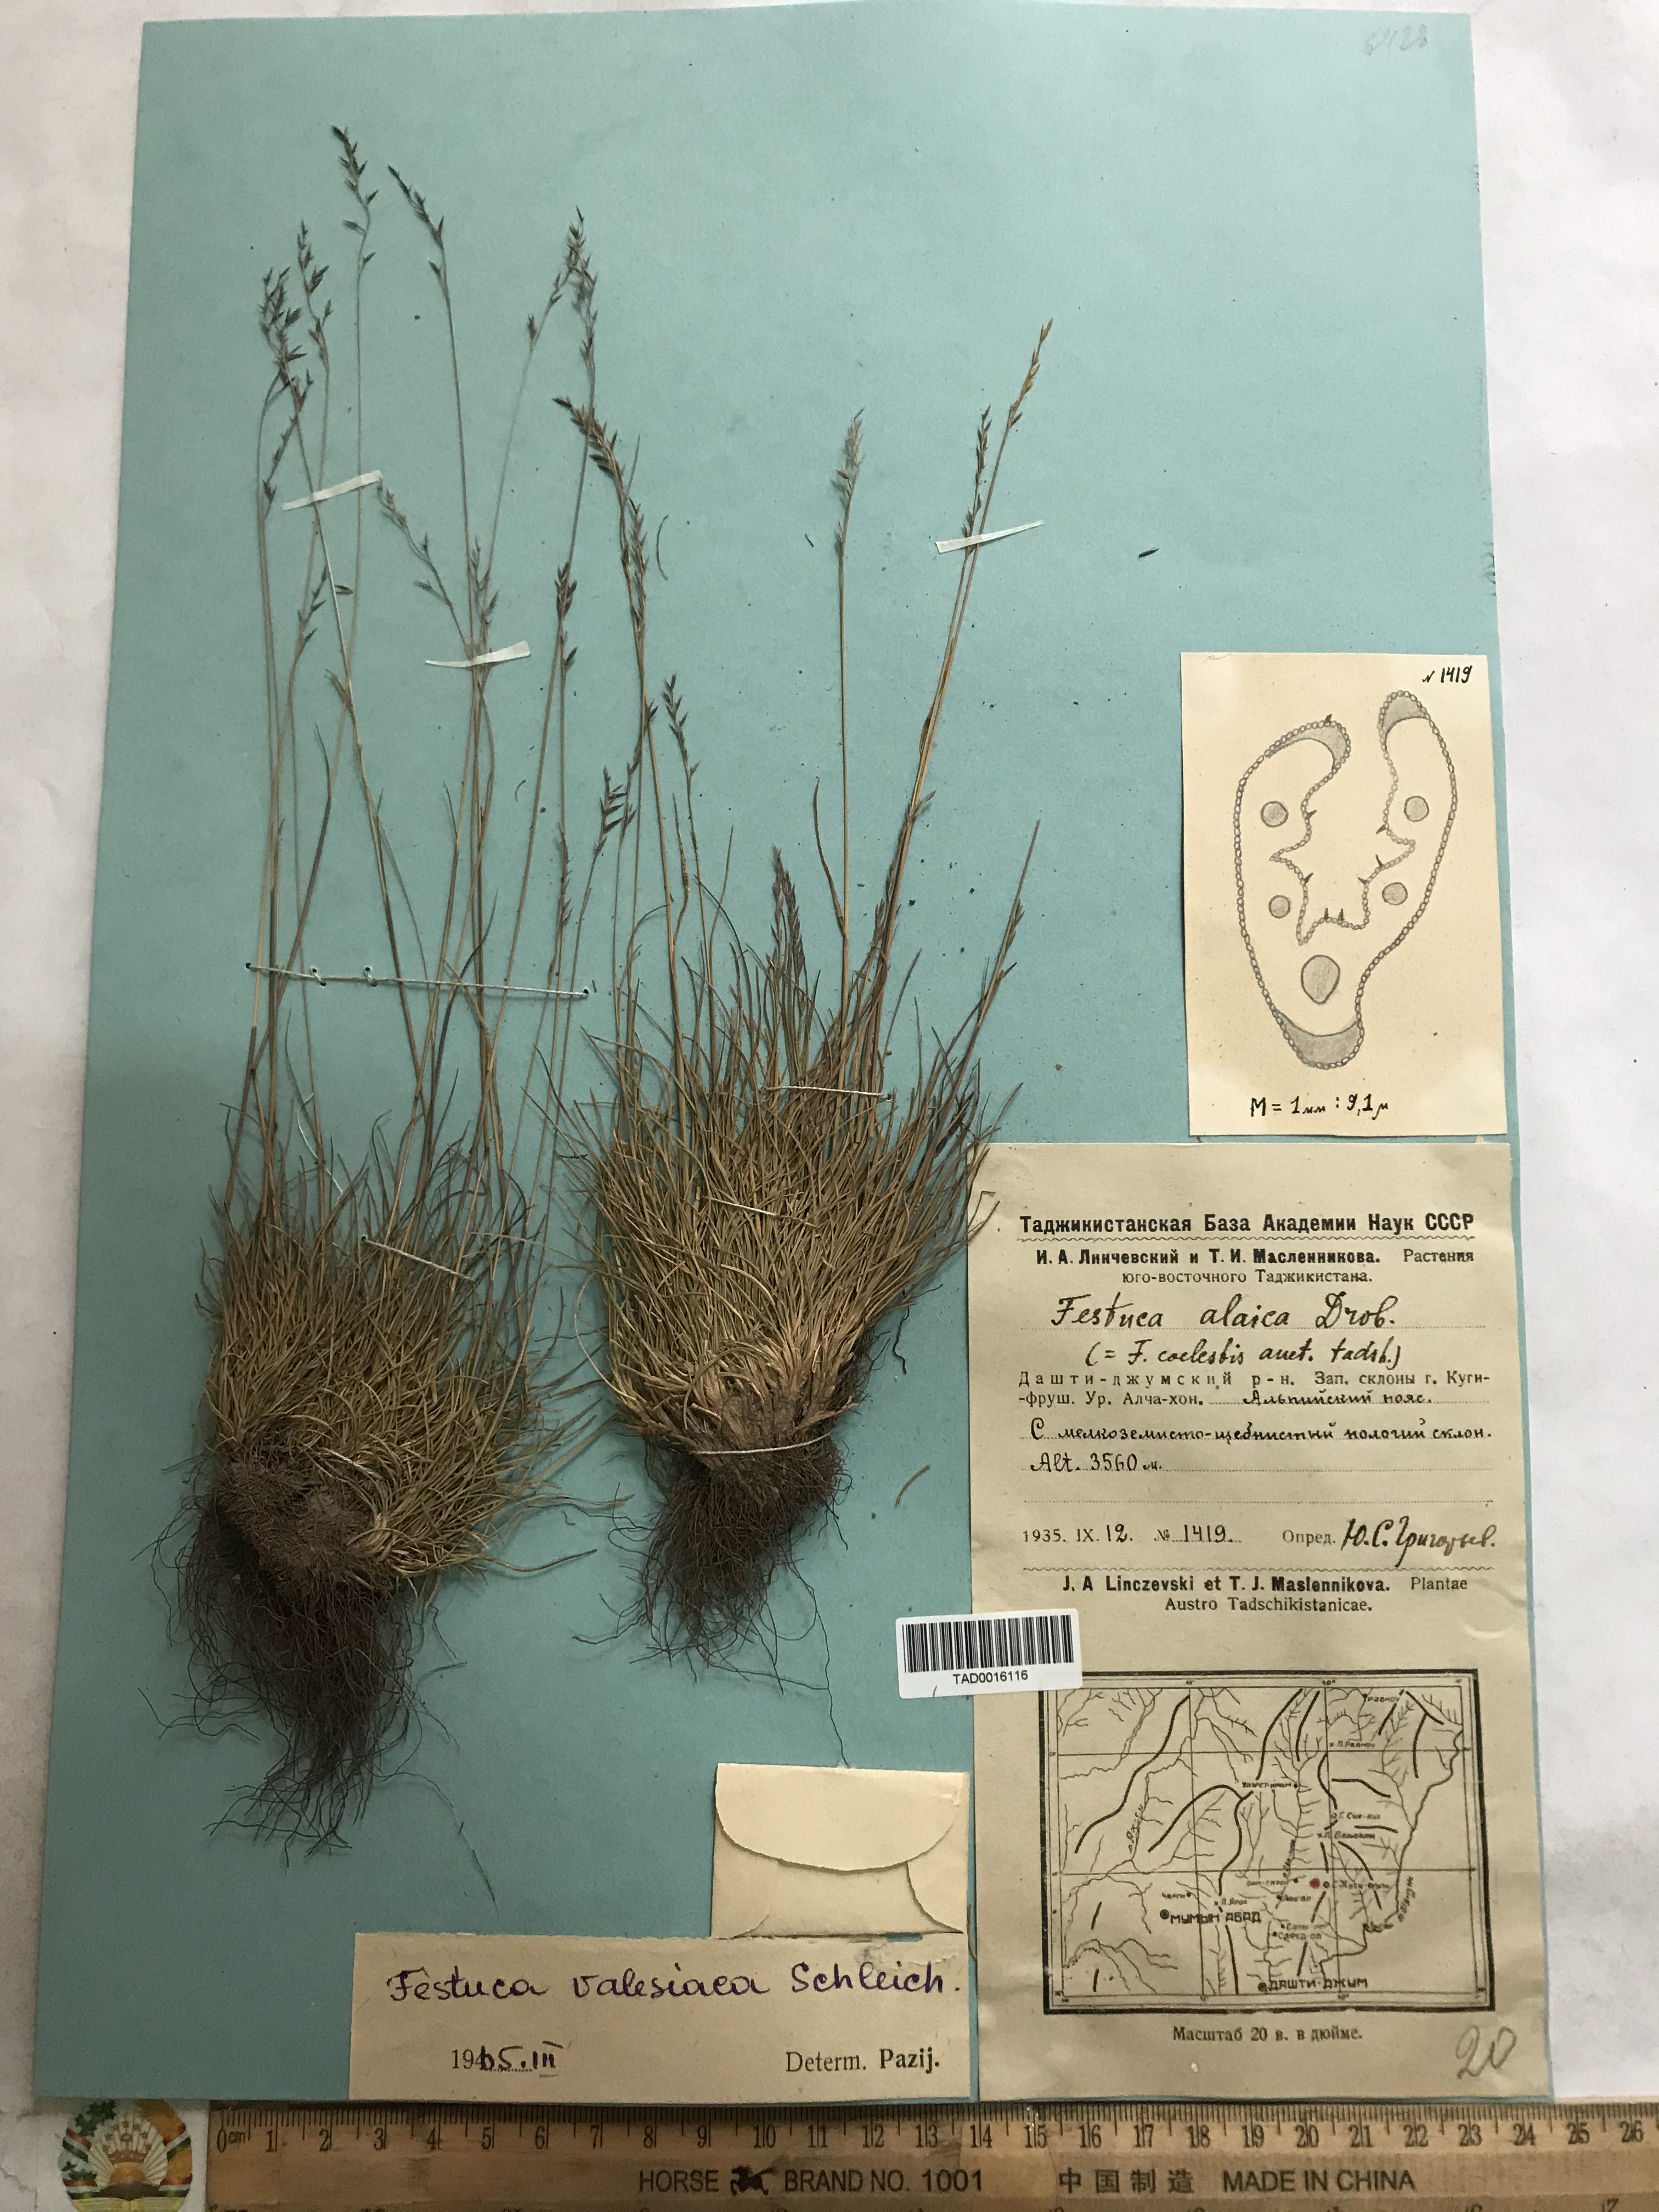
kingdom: Plantae
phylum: Tracheophyta
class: Liliopsida
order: Poales
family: Poaceae
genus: Festuca
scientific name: Festuca valesiaca
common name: Volga fescue
